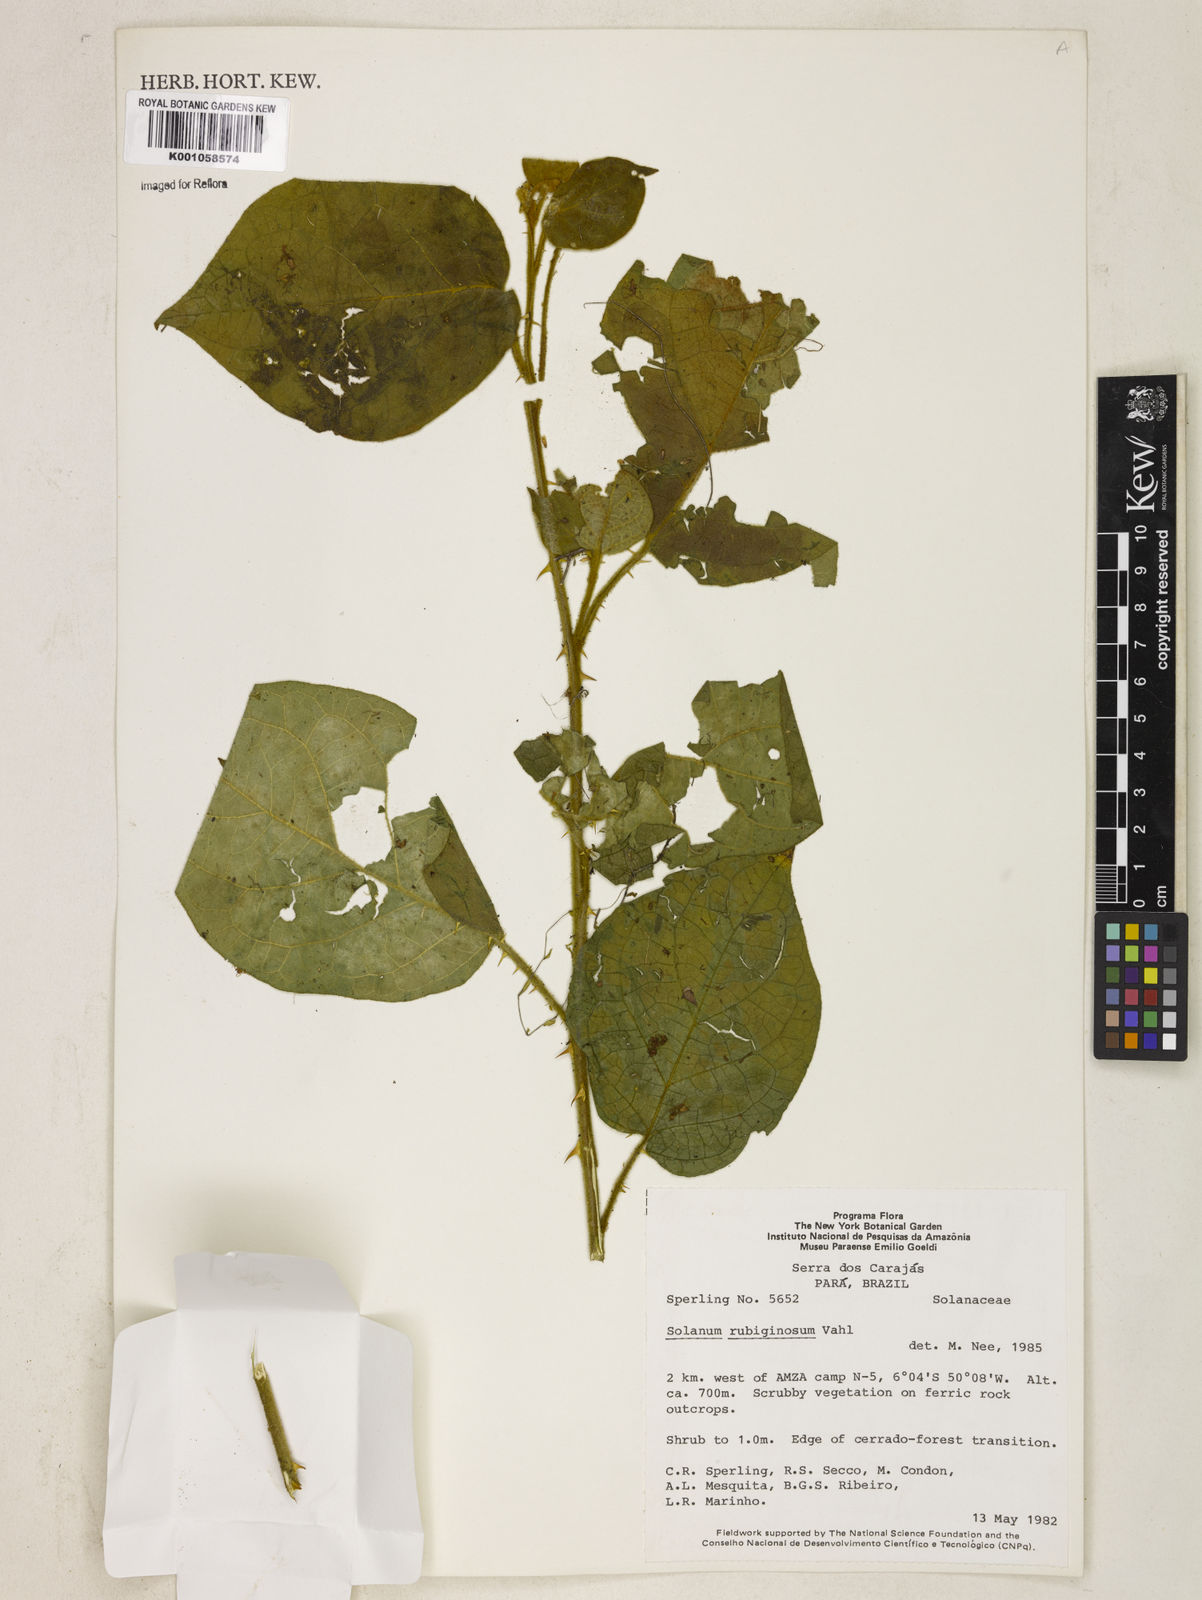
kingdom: Plantae
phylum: Tracheophyta
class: Magnoliopsida
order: Solanales
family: Solanaceae
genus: Solanum
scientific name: Solanum rubiginosum
